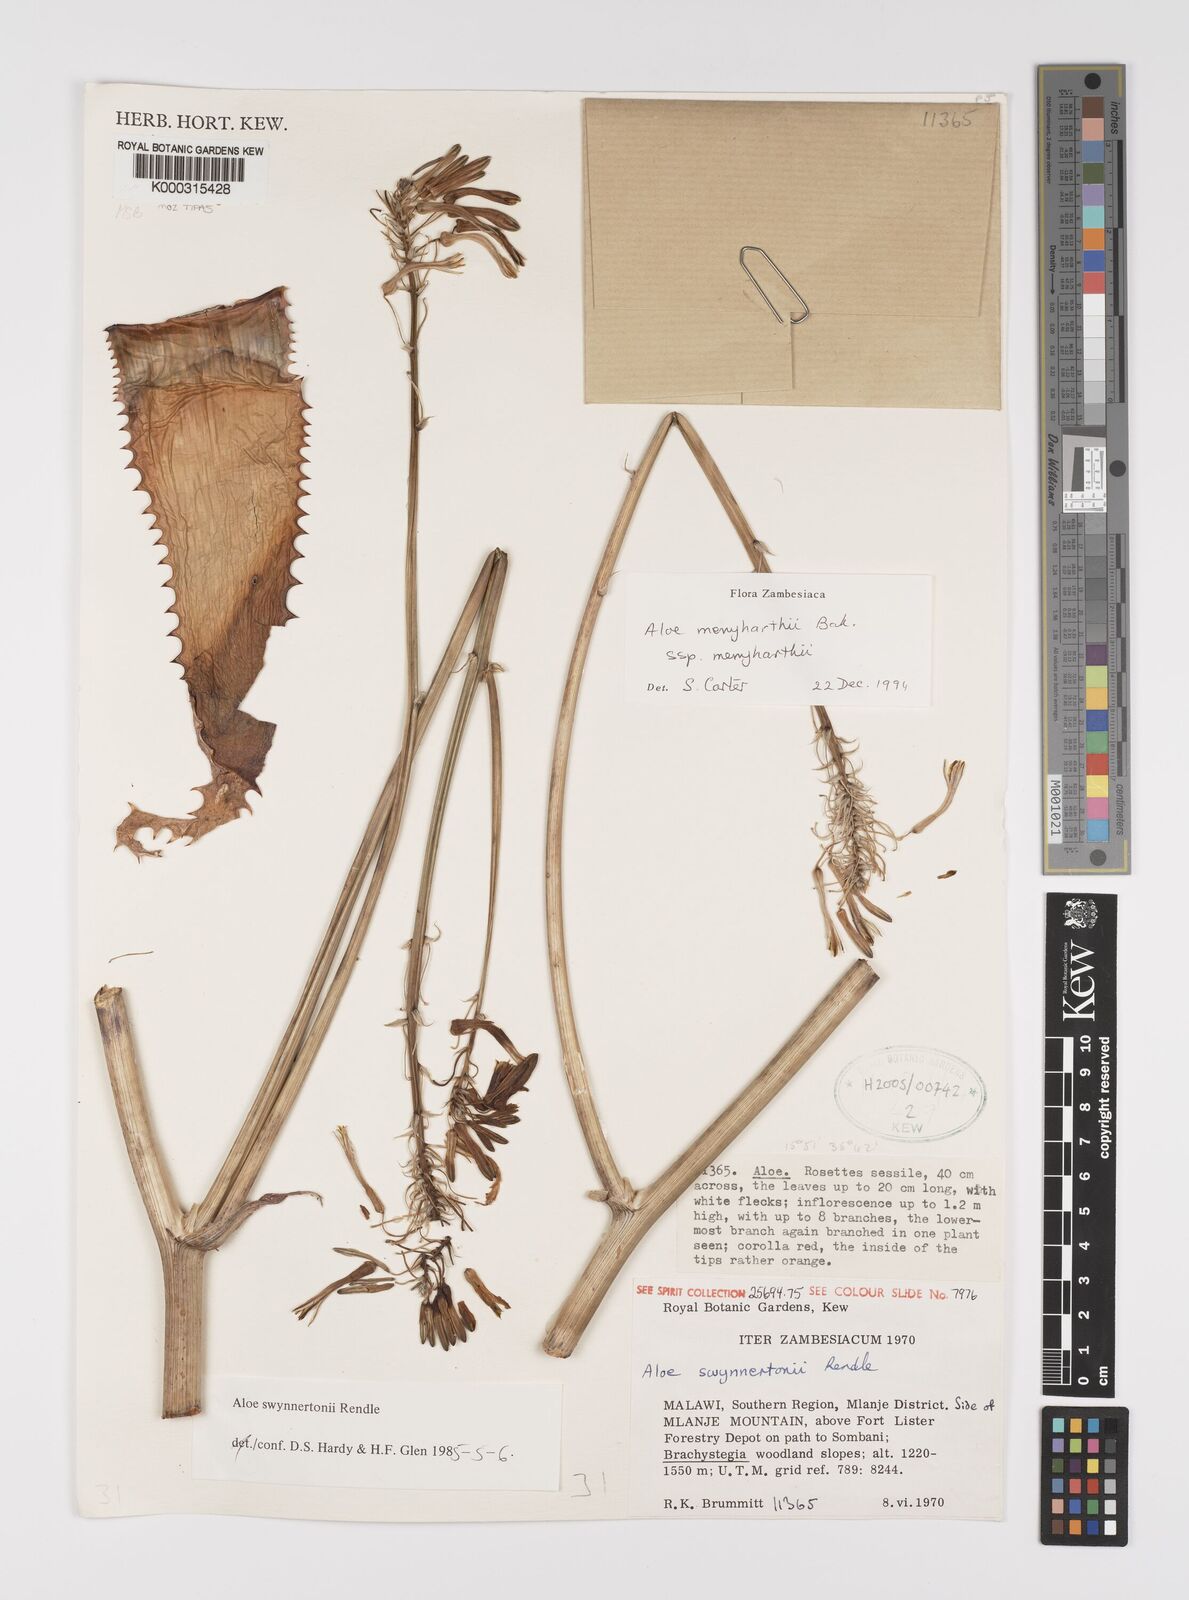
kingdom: Plantae
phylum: Tracheophyta
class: Liliopsida
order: Asparagales
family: Asphodelaceae
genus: Aloe
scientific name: Aloe menyharthii
